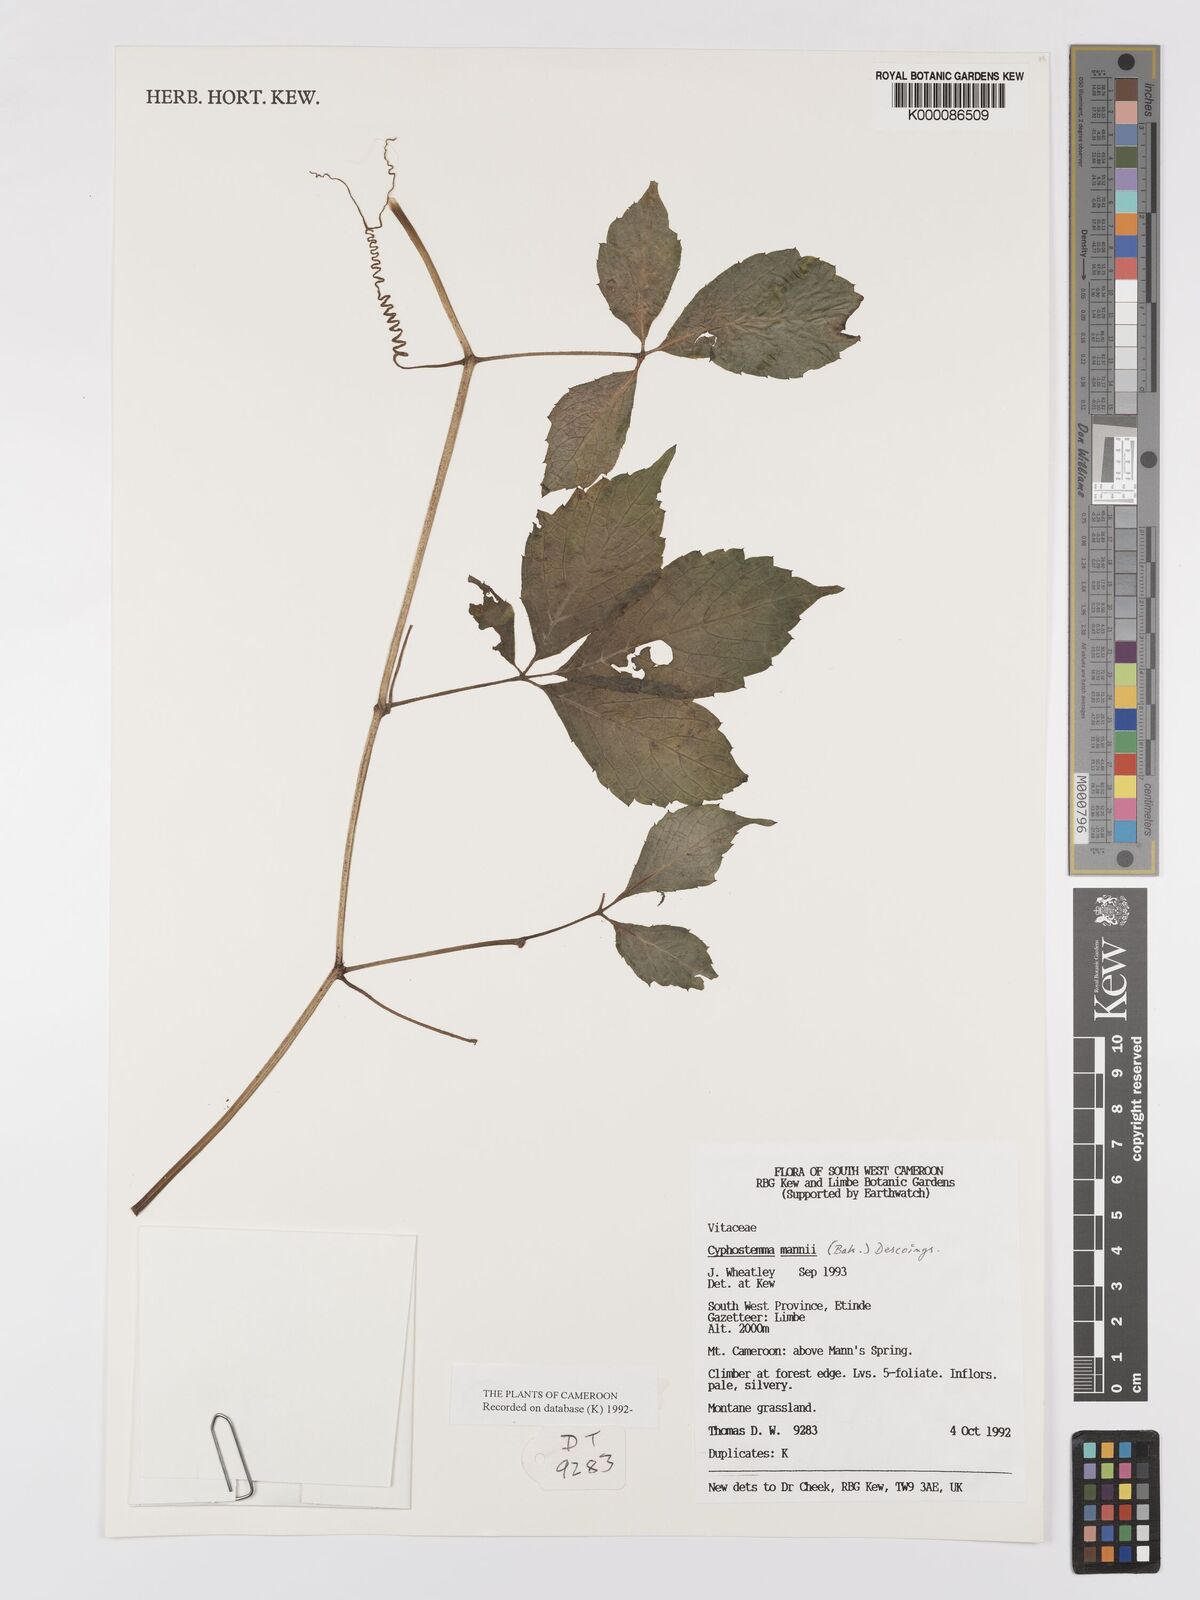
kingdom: Plantae
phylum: Tracheophyta
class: Magnoliopsida
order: Vitales
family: Vitaceae
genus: Cyphostemma
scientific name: Cyphostemma mannii
